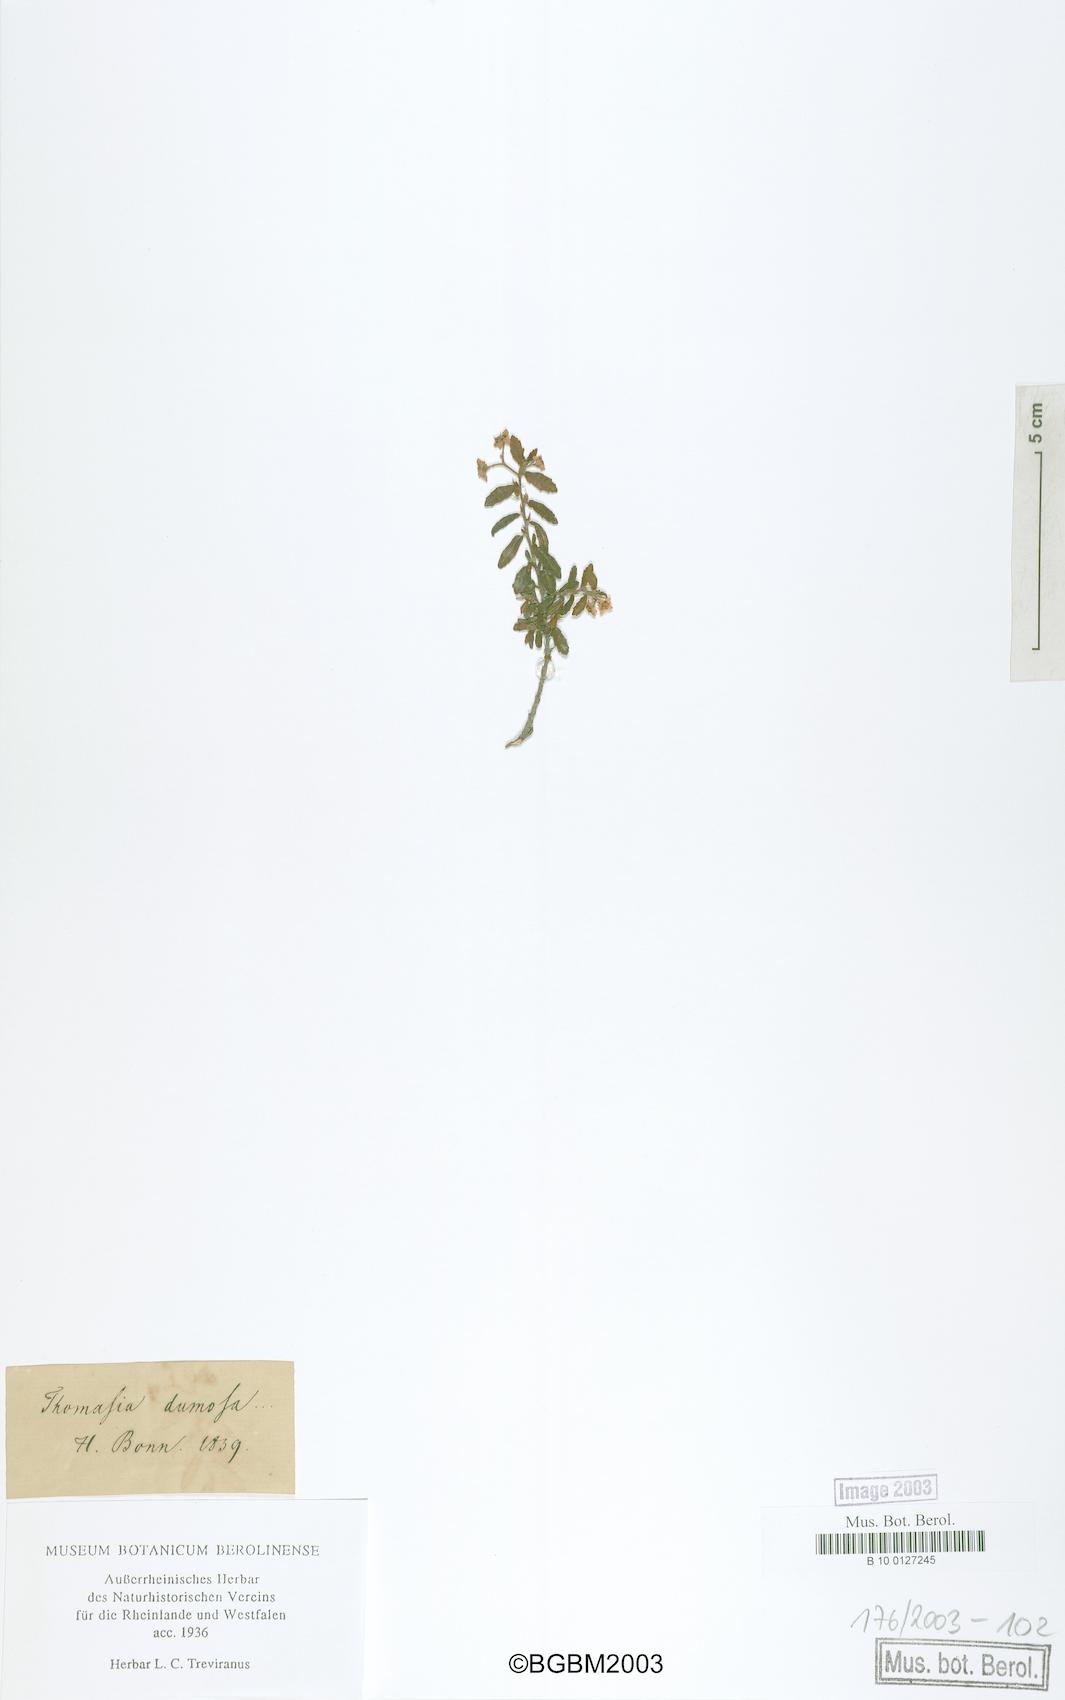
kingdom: Plantae
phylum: Tracheophyta
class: Magnoliopsida
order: Malvales
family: Malvaceae
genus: Commersonia
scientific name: Commersonia parviflora
